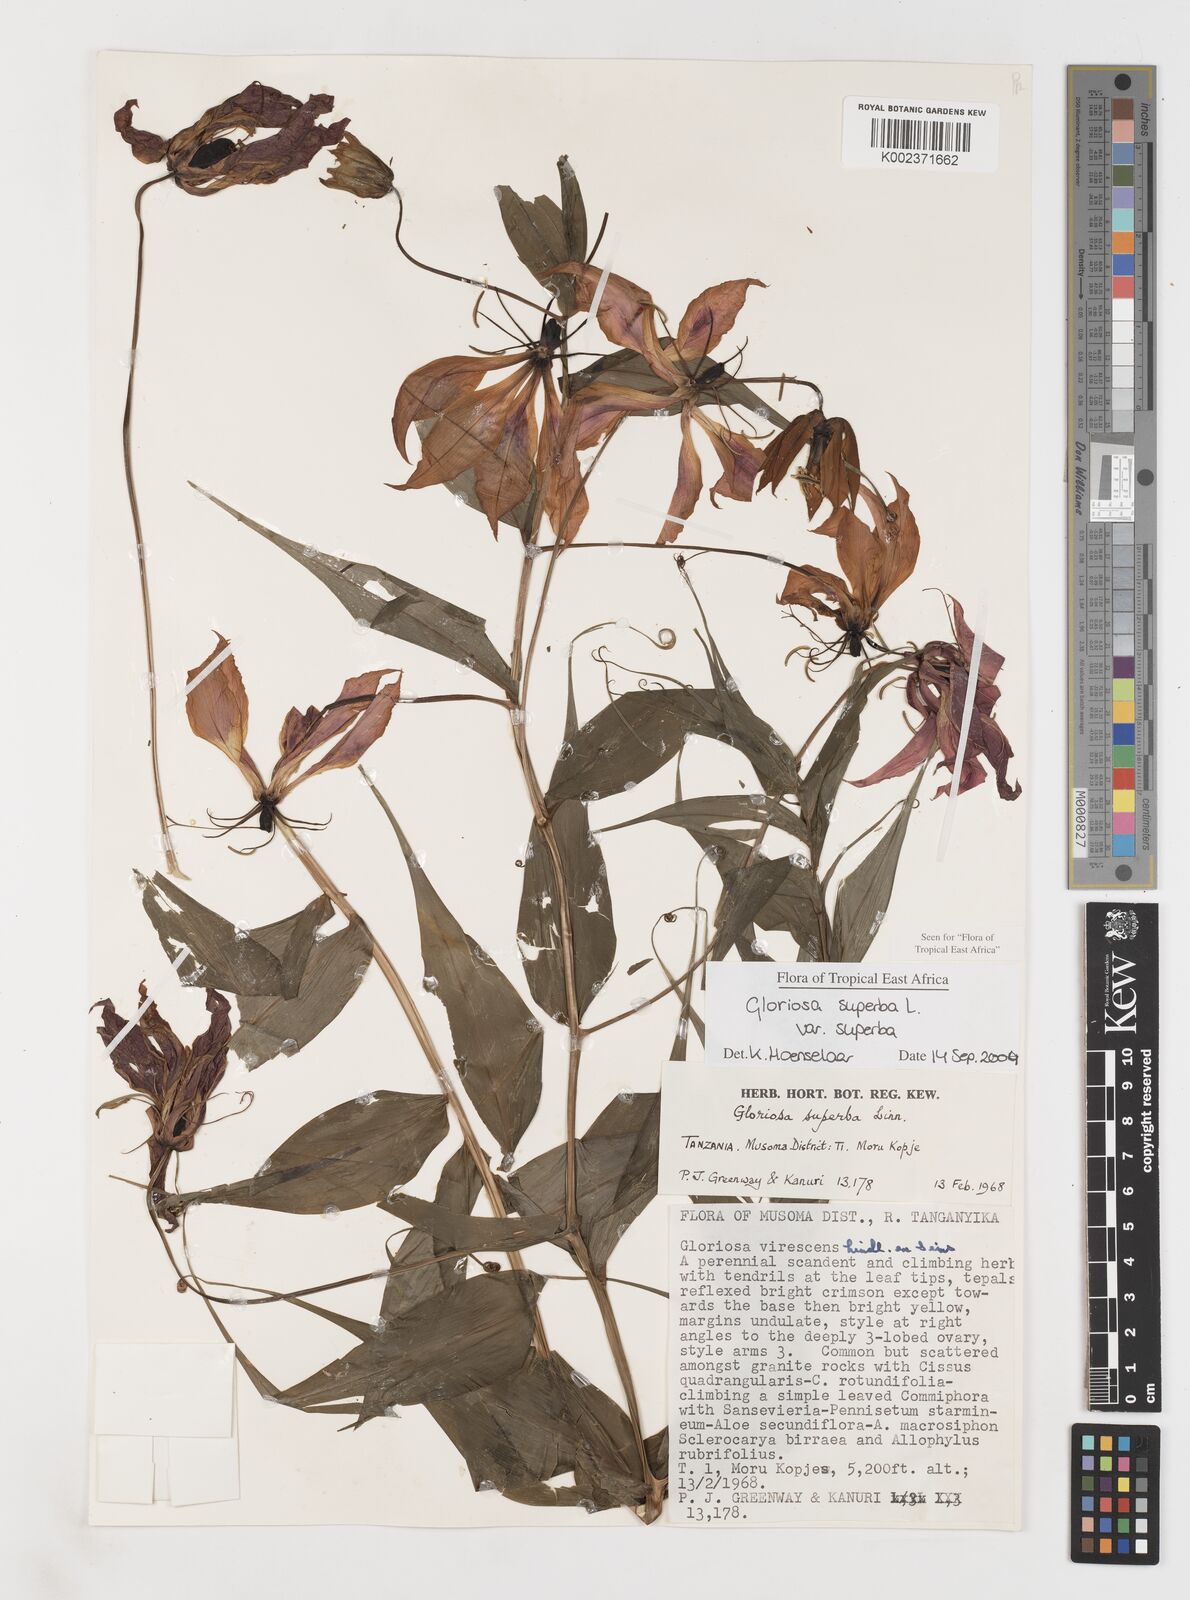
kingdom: Plantae
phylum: Tracheophyta
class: Liliopsida
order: Liliales
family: Colchicaceae
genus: Gloriosa
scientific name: Gloriosa simplex
